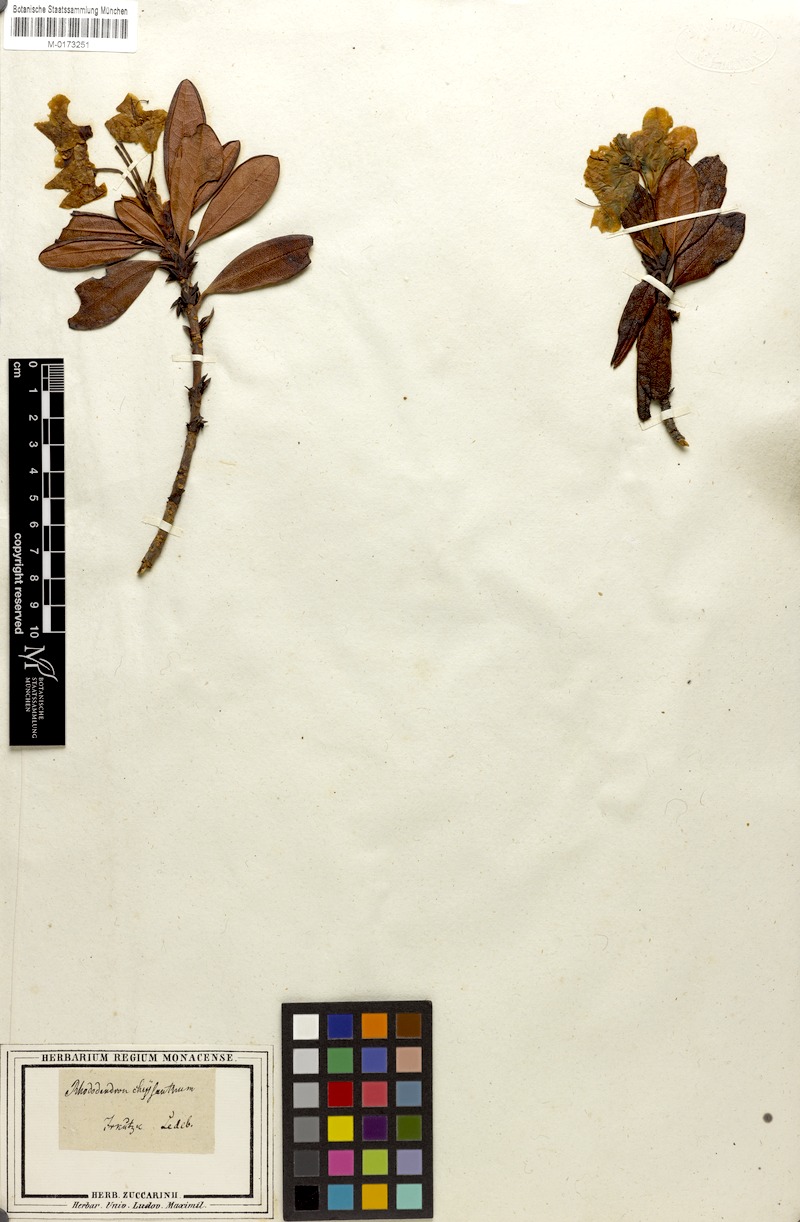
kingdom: Plantae
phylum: Tracheophyta
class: Magnoliopsida
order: Ericales
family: Ericaceae
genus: Rhododendron
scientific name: Rhododendron aureum
